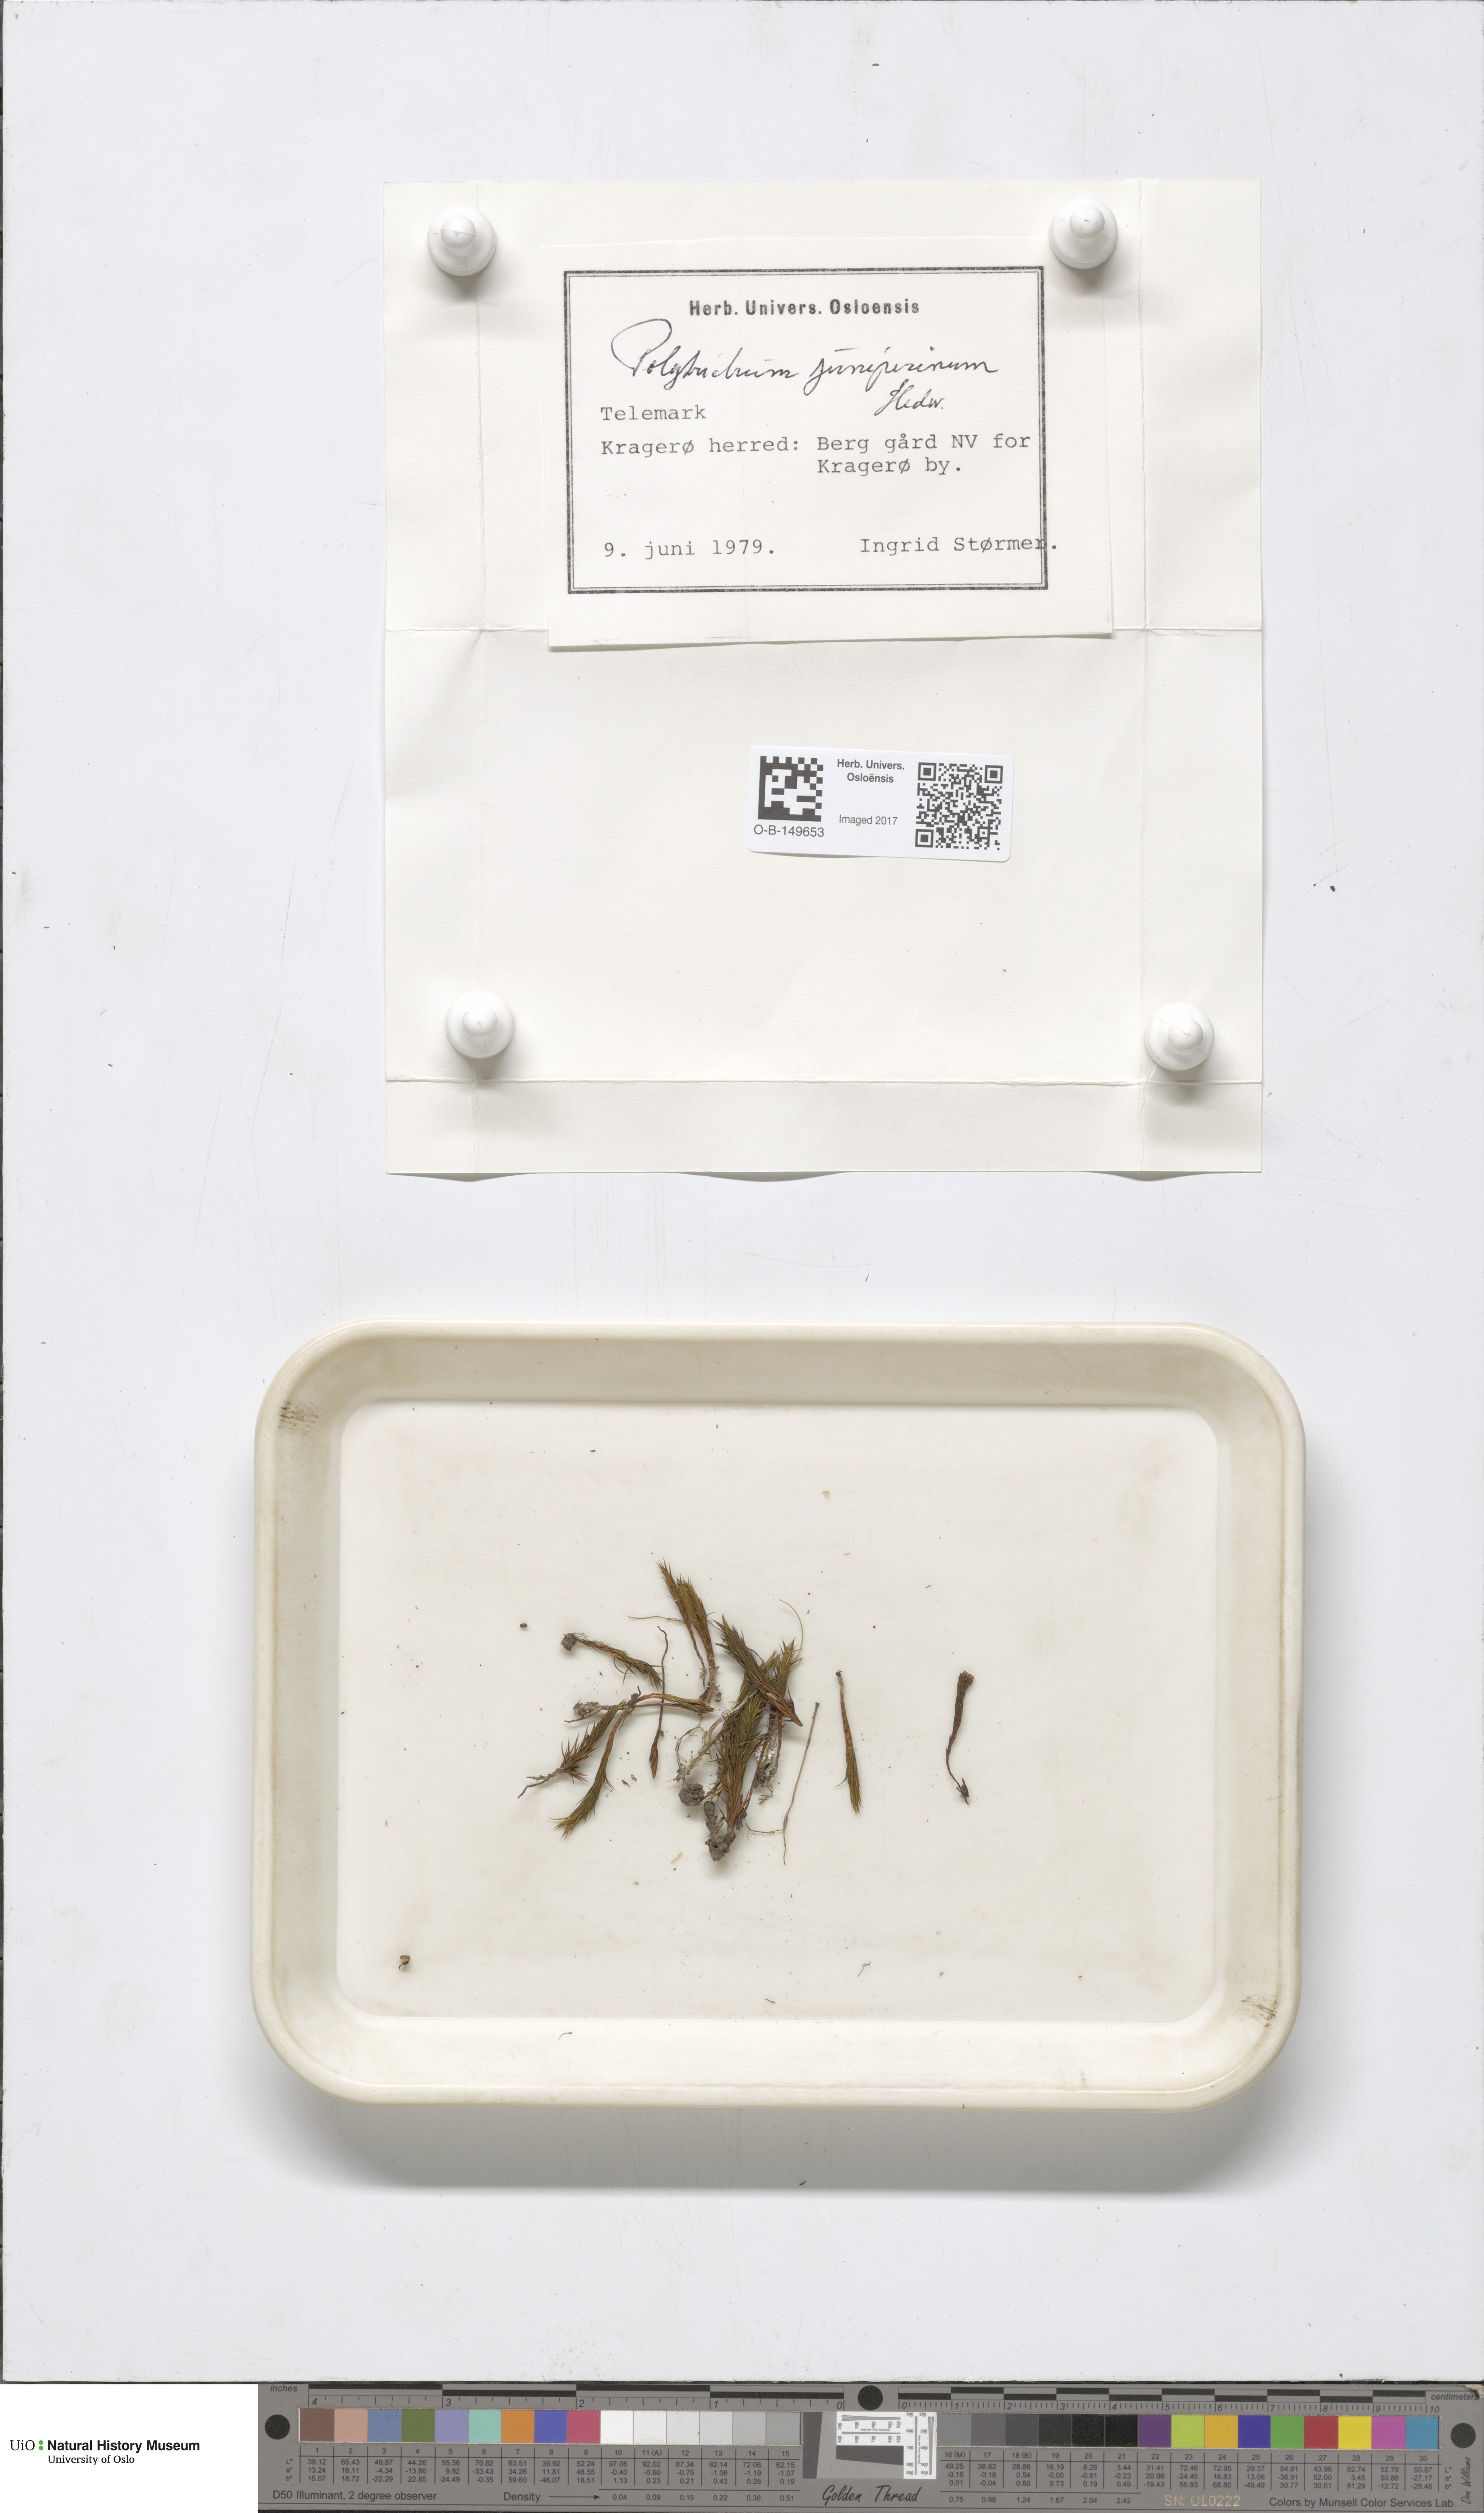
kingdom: Plantae
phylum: Bryophyta
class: Polytrichopsida
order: Polytrichales
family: Polytrichaceae
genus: Polytrichum
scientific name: Polytrichum juniperinum
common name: Juniper haircap moss
